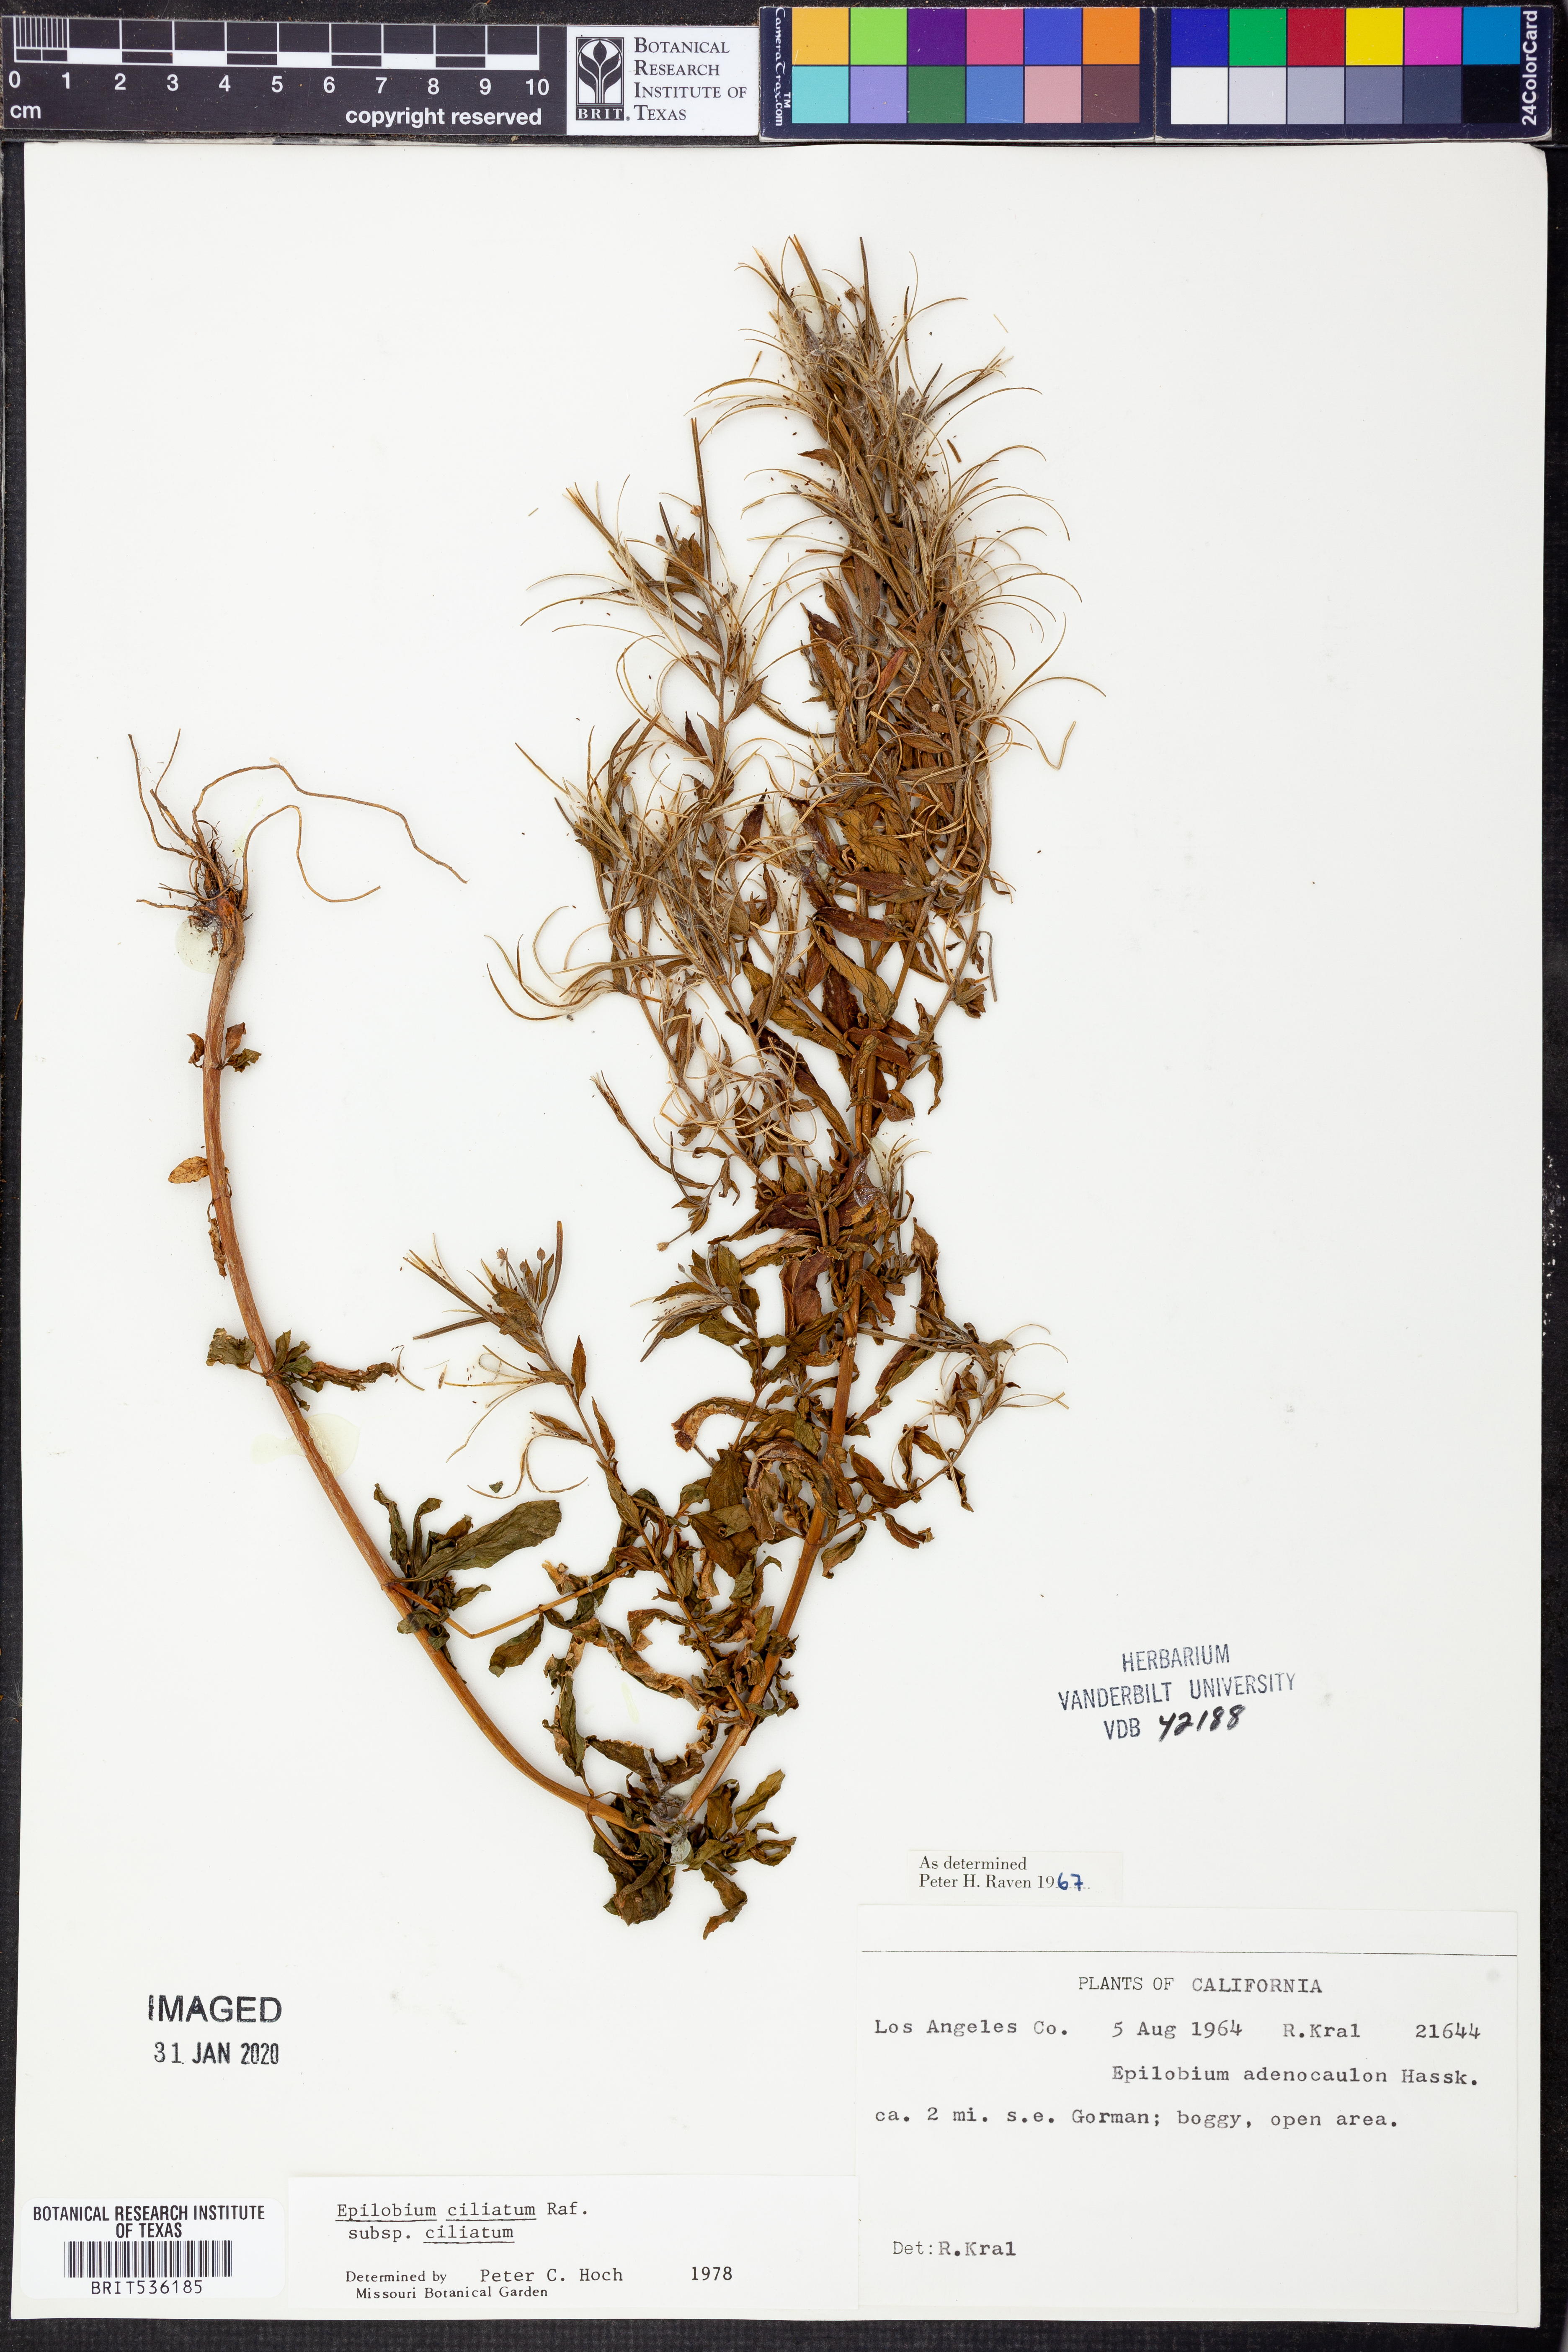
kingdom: Plantae
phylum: Tracheophyta
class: Magnoliopsida
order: Myrtales
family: Onagraceae
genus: Epilobium
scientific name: Epilobium ciliatum
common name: American willowherb
